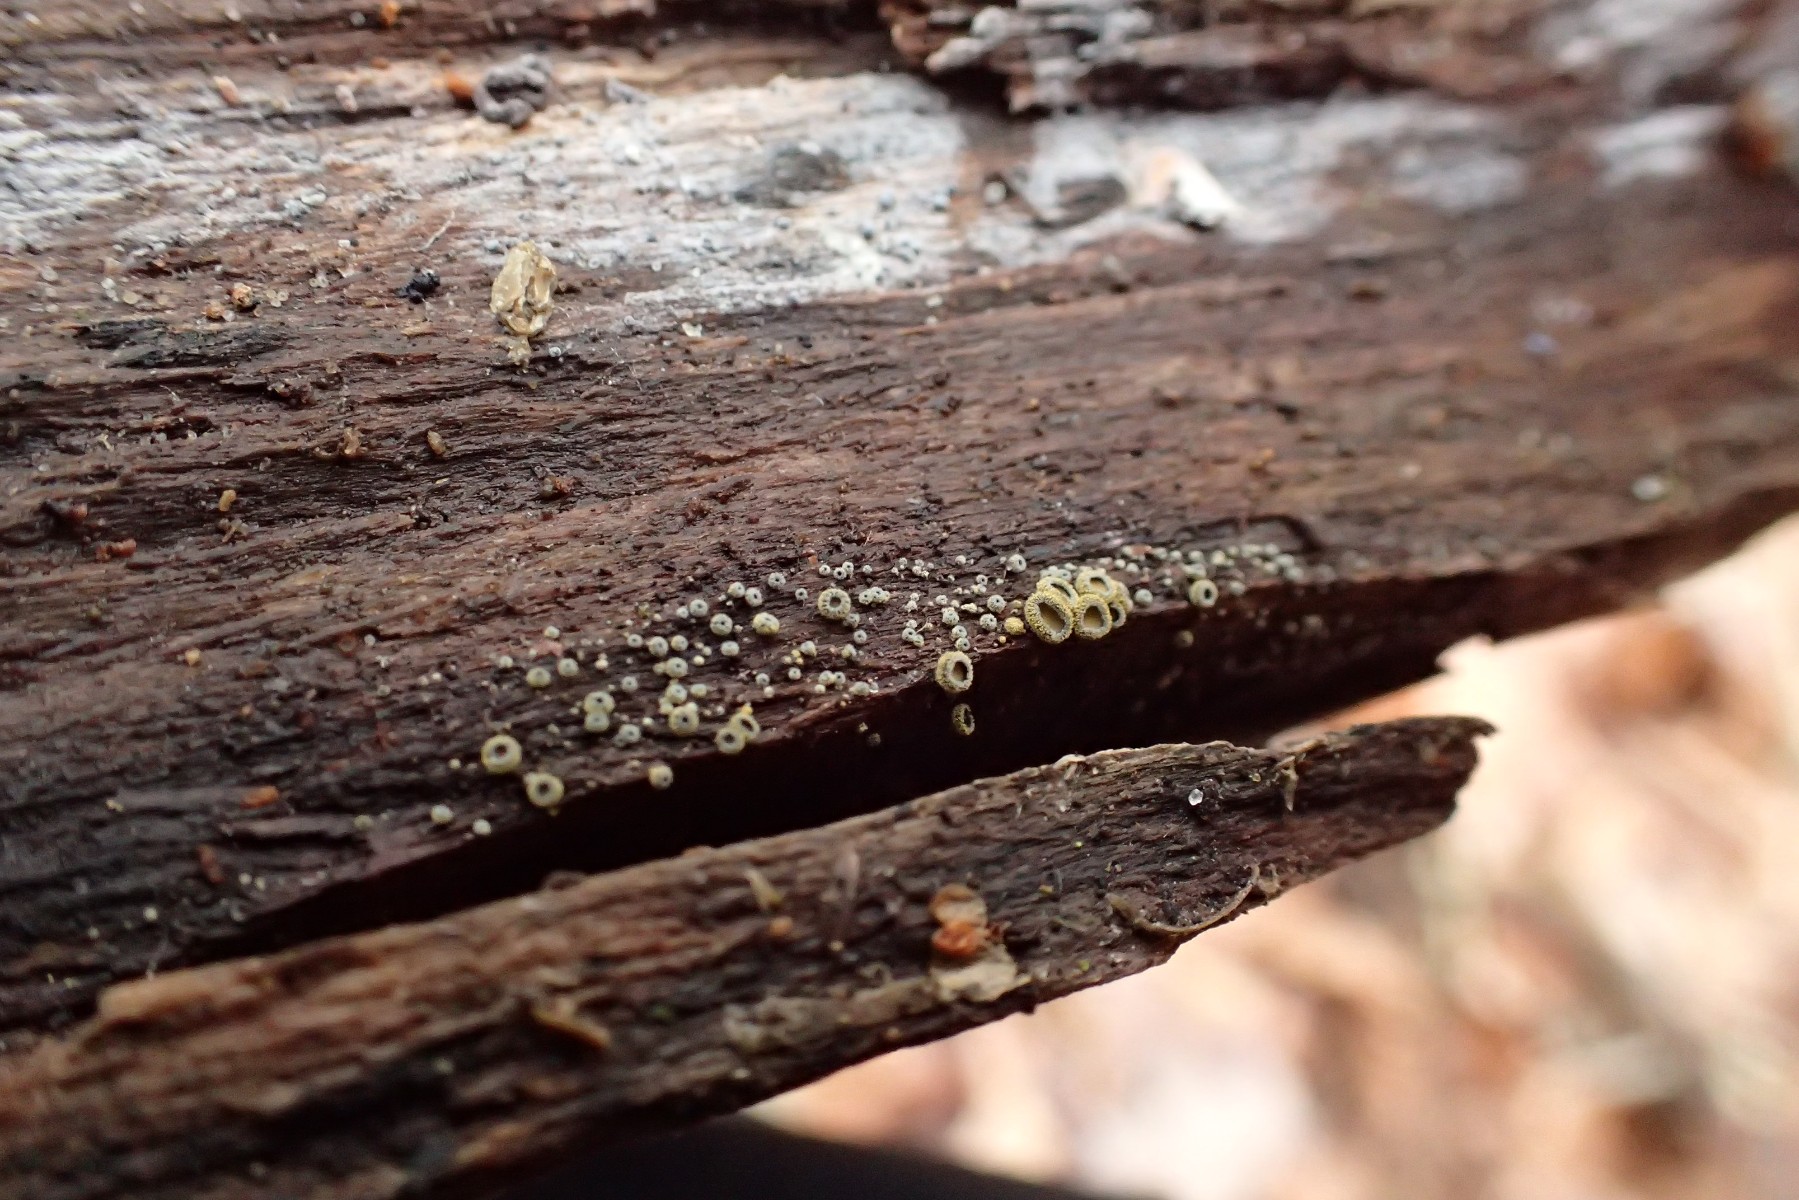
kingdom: Fungi
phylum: Ascomycota
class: Leotiomycetes
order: Helotiales
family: Lachnaceae
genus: Neodasyscypha
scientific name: Neodasyscypha cerina
